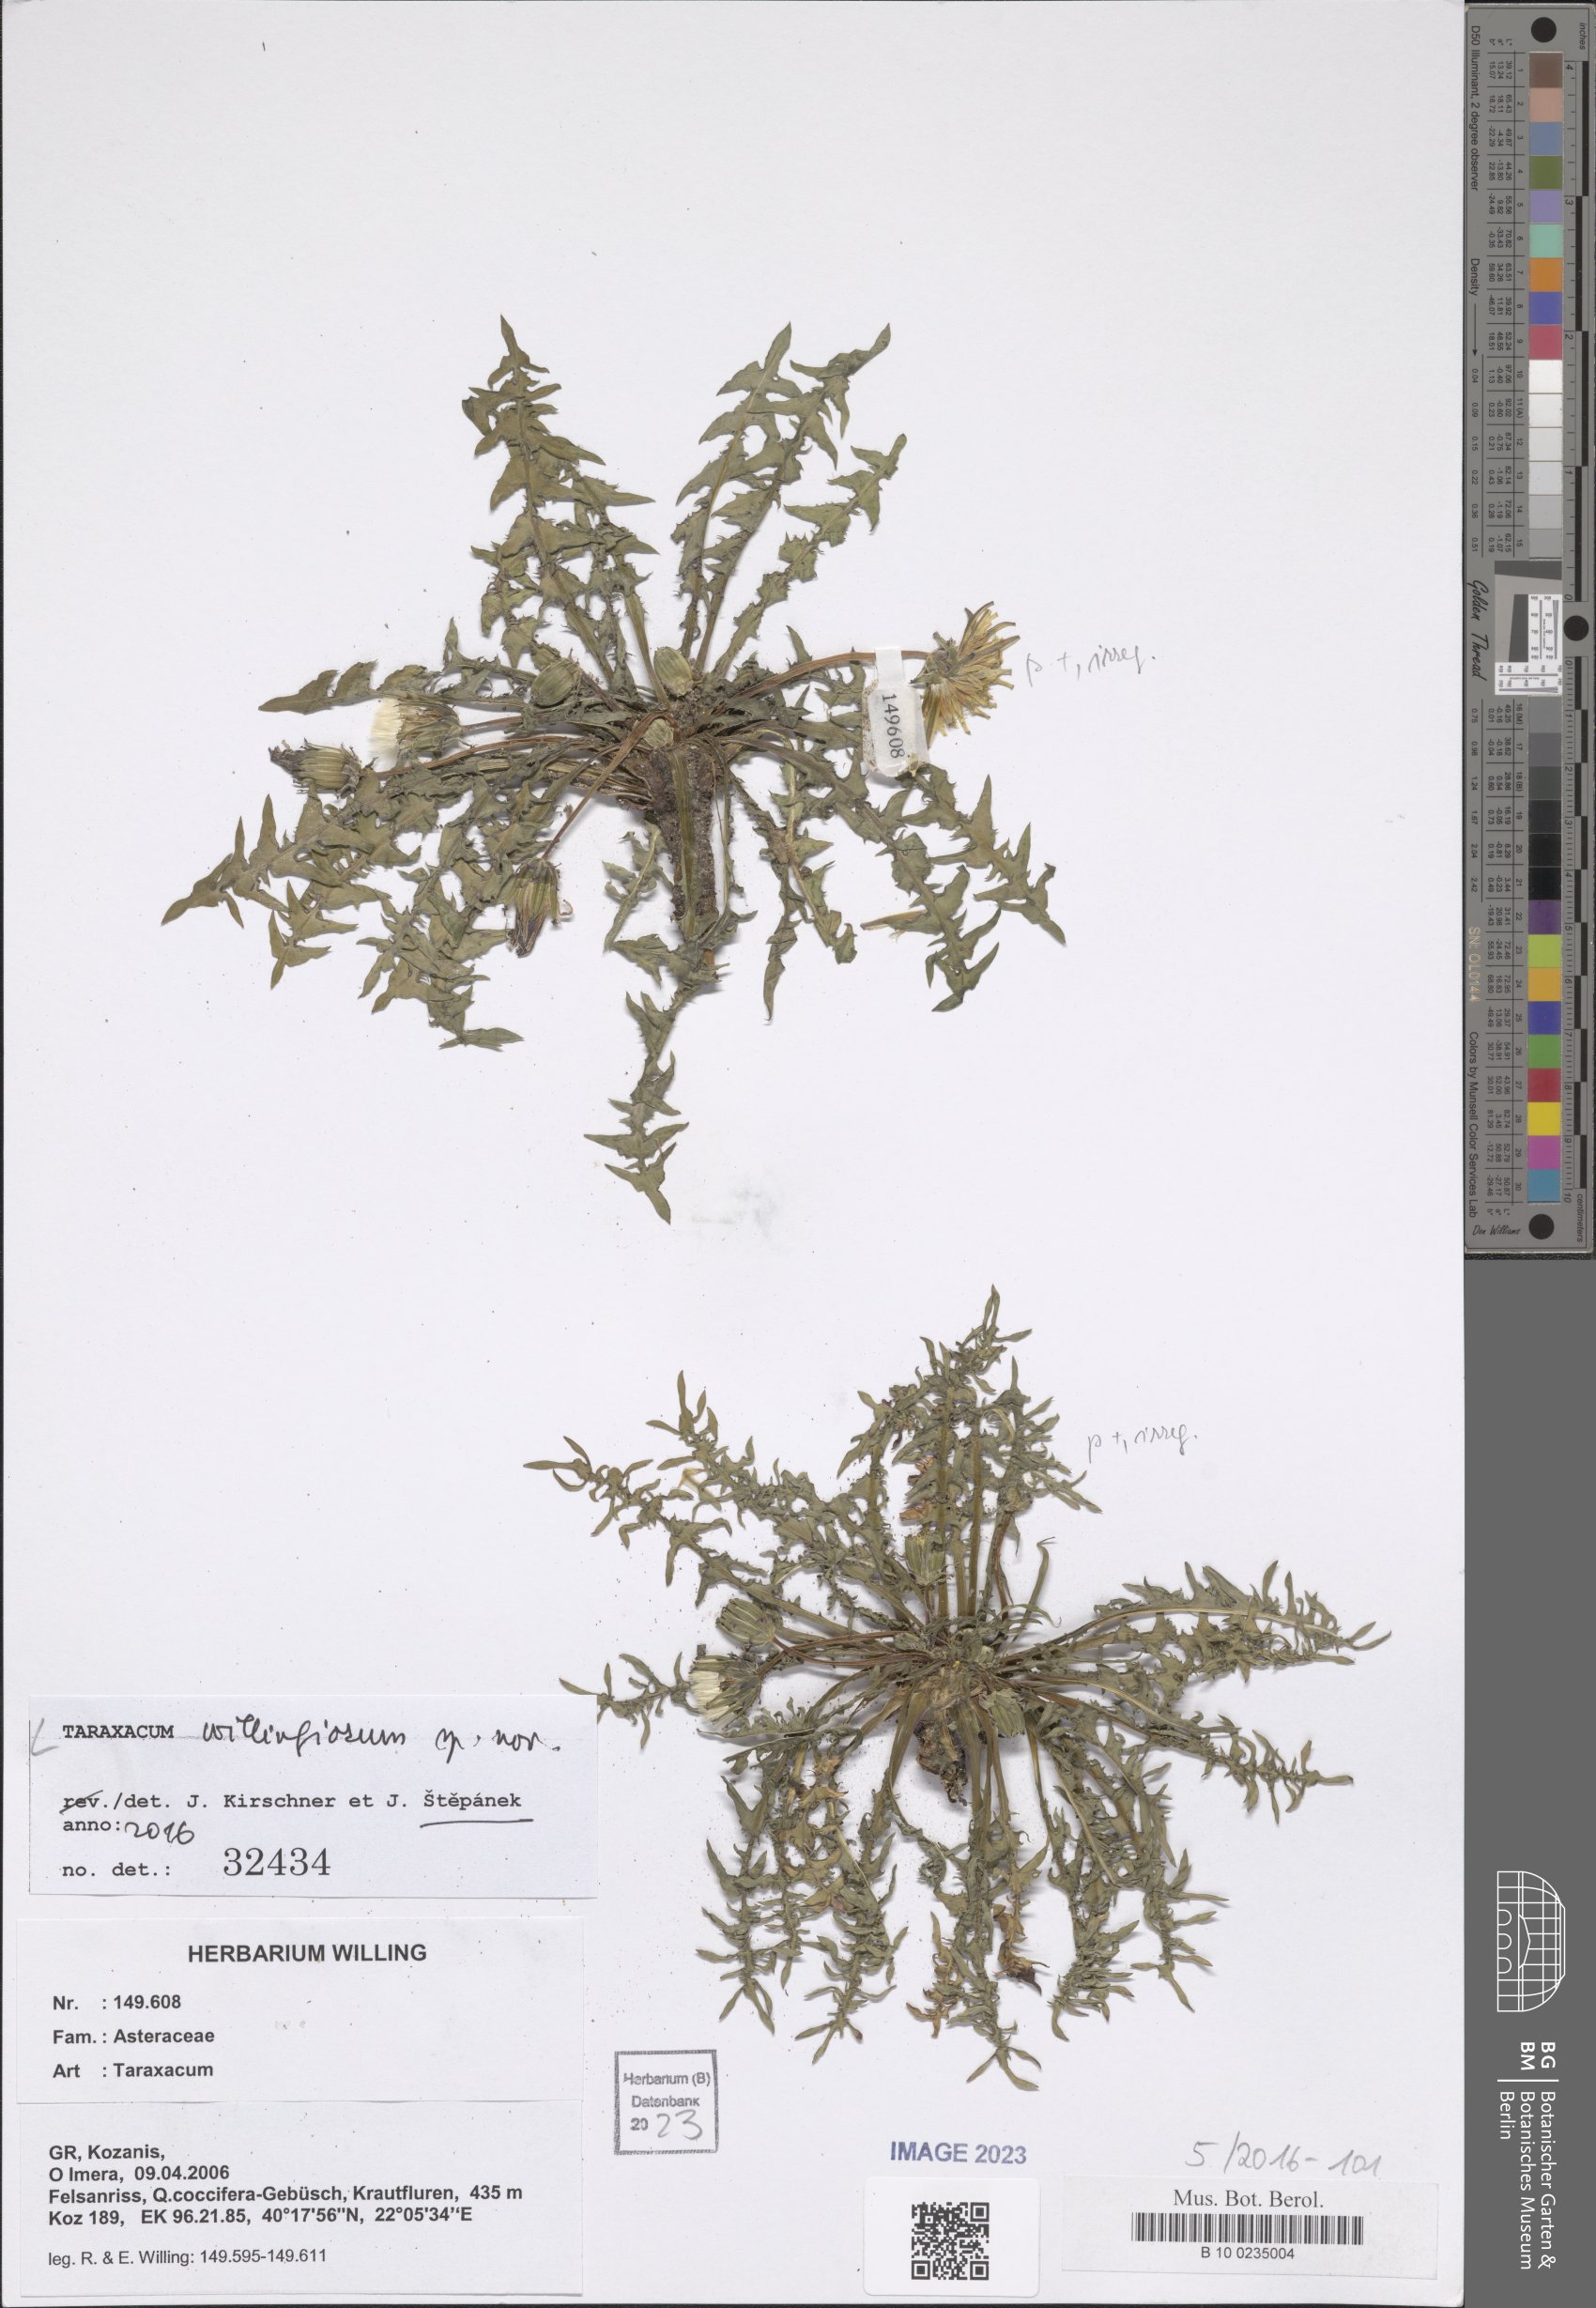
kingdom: Plantae
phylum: Tracheophyta
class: Magnoliopsida
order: Asterales
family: Asteraceae
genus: Taraxacum
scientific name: Taraxacum
